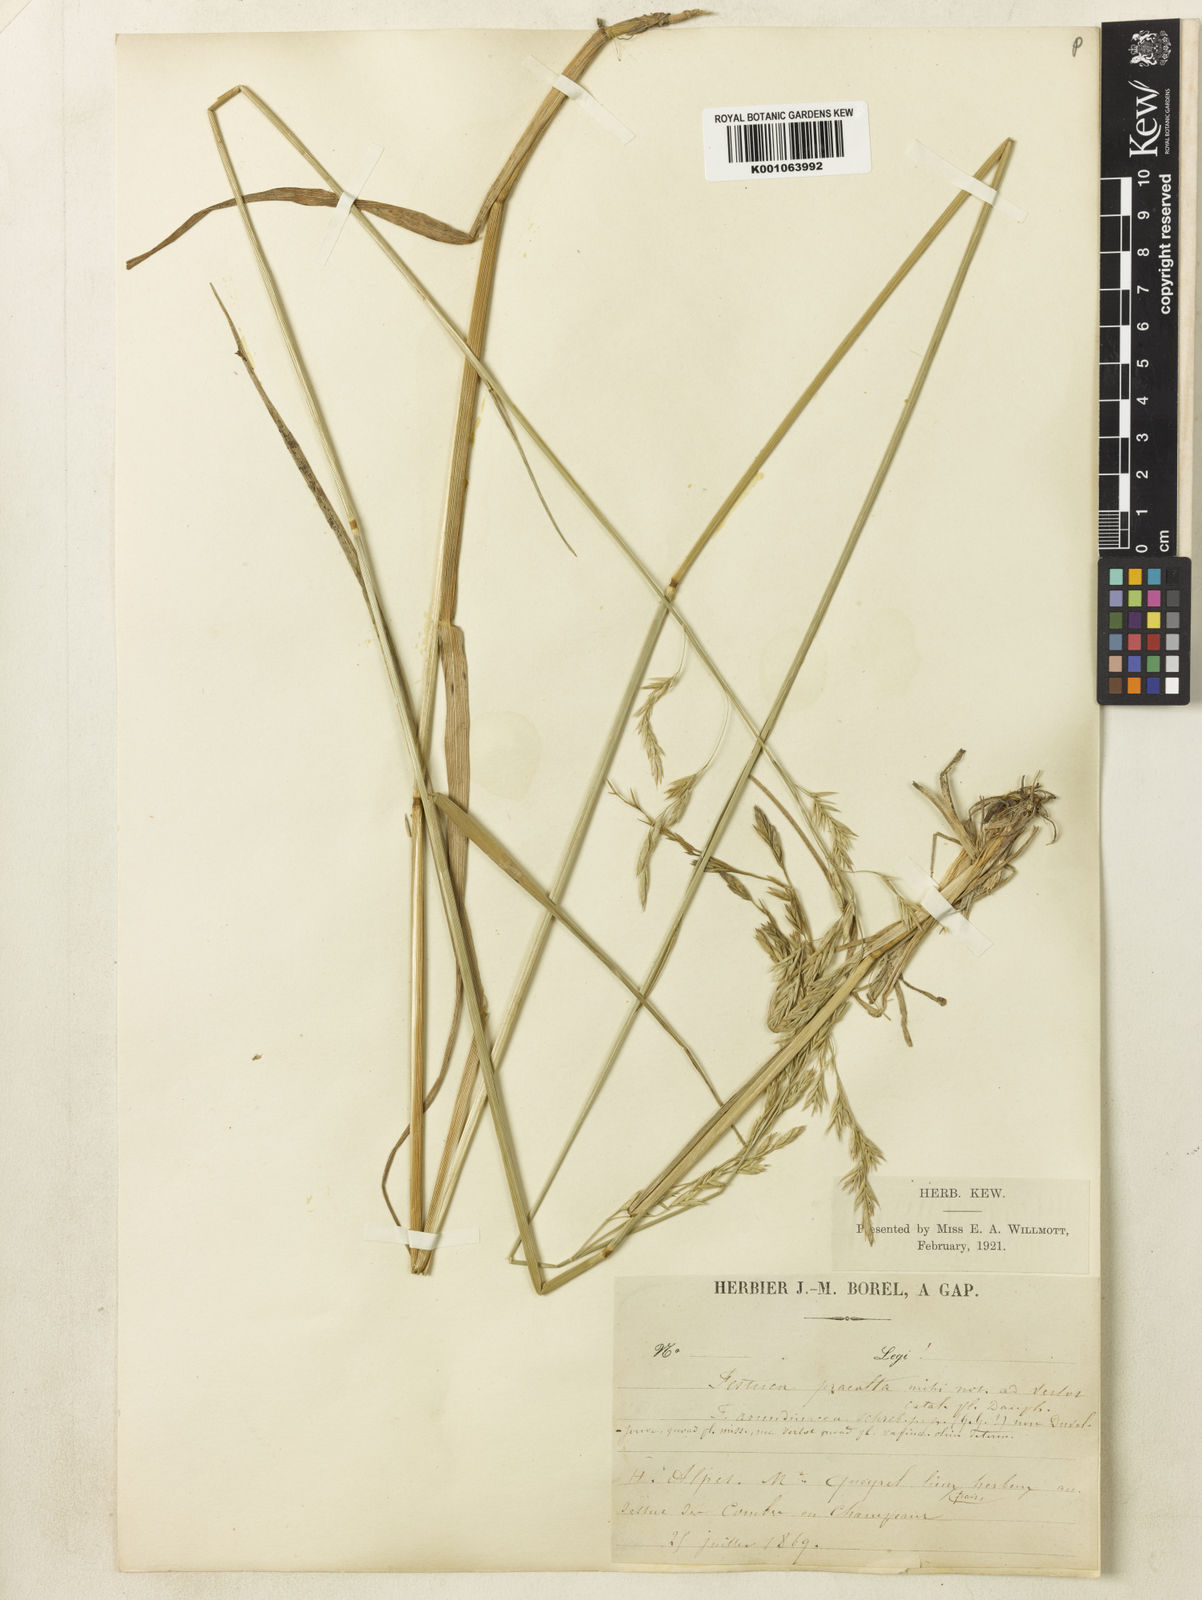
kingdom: Plantae
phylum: Tracheophyta
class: Liliopsida
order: Poales
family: Poaceae
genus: Lolium
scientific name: Lolium arundinaceum
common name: Reed fescue
